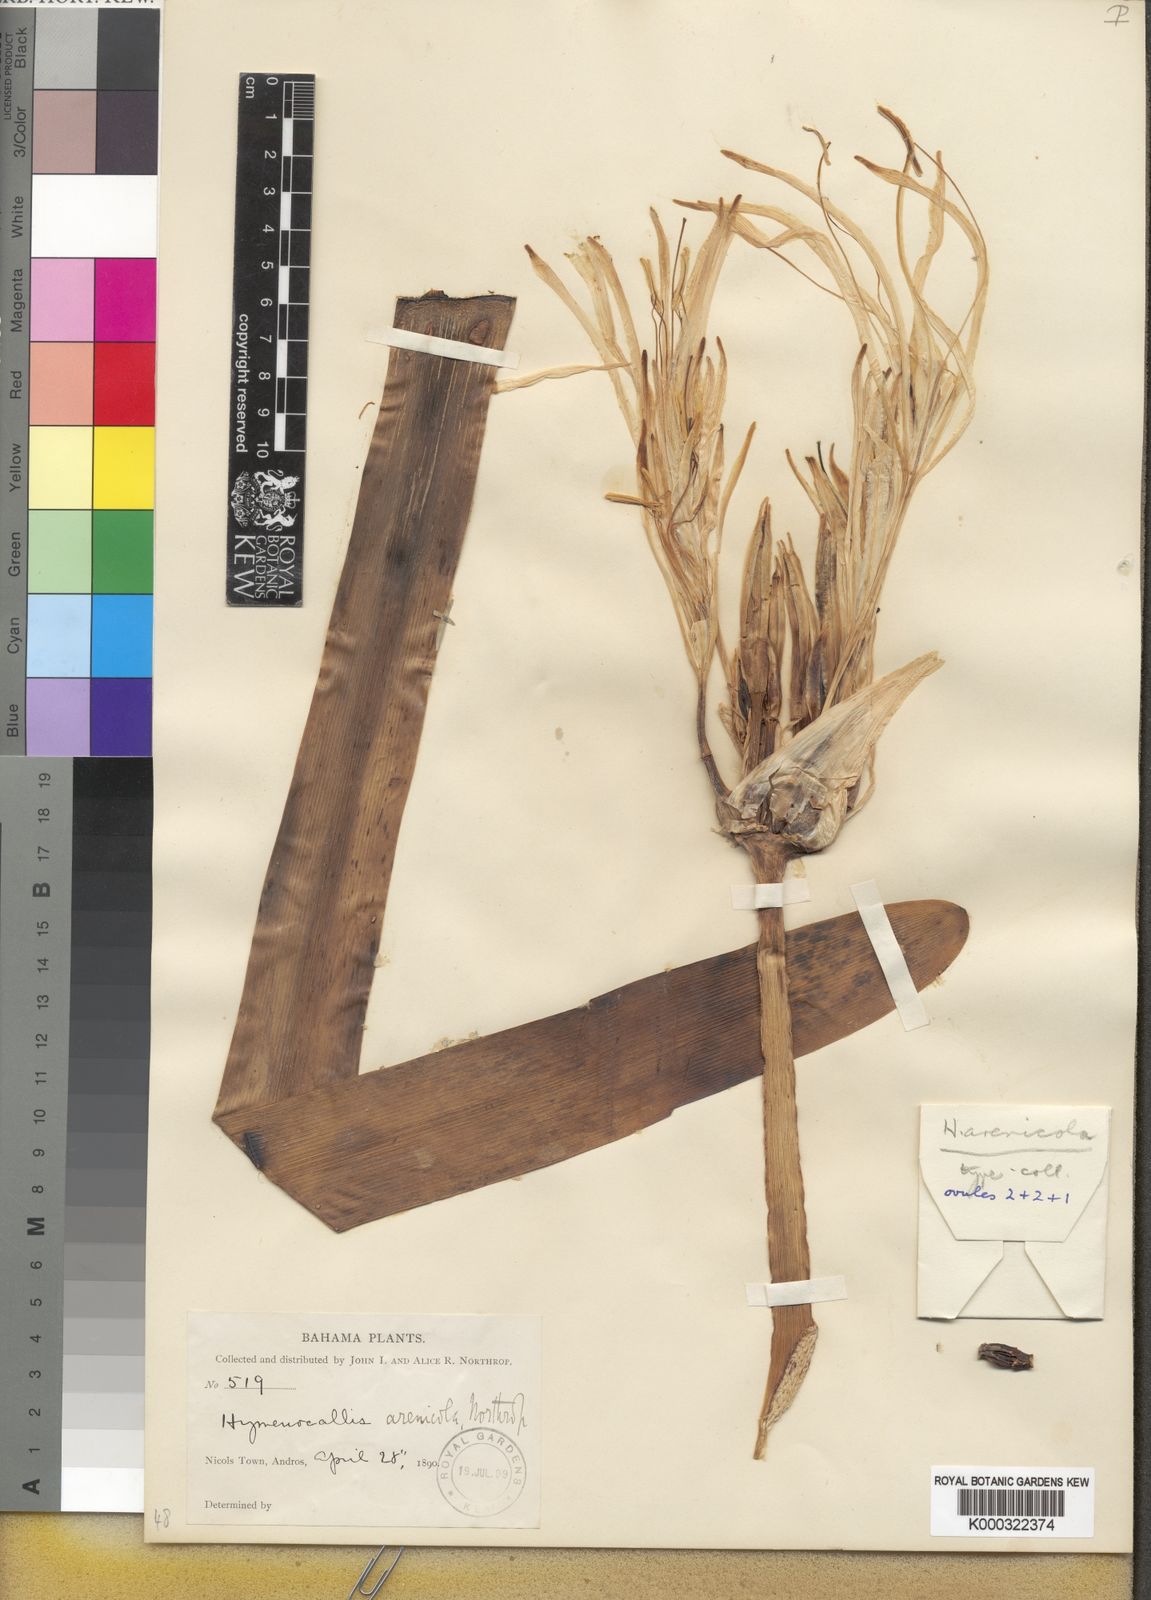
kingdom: Plantae
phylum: Tracheophyta
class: Liliopsida
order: Asparagales
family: Amaryllidaceae
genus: Hymenocallis
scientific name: Hymenocallis
